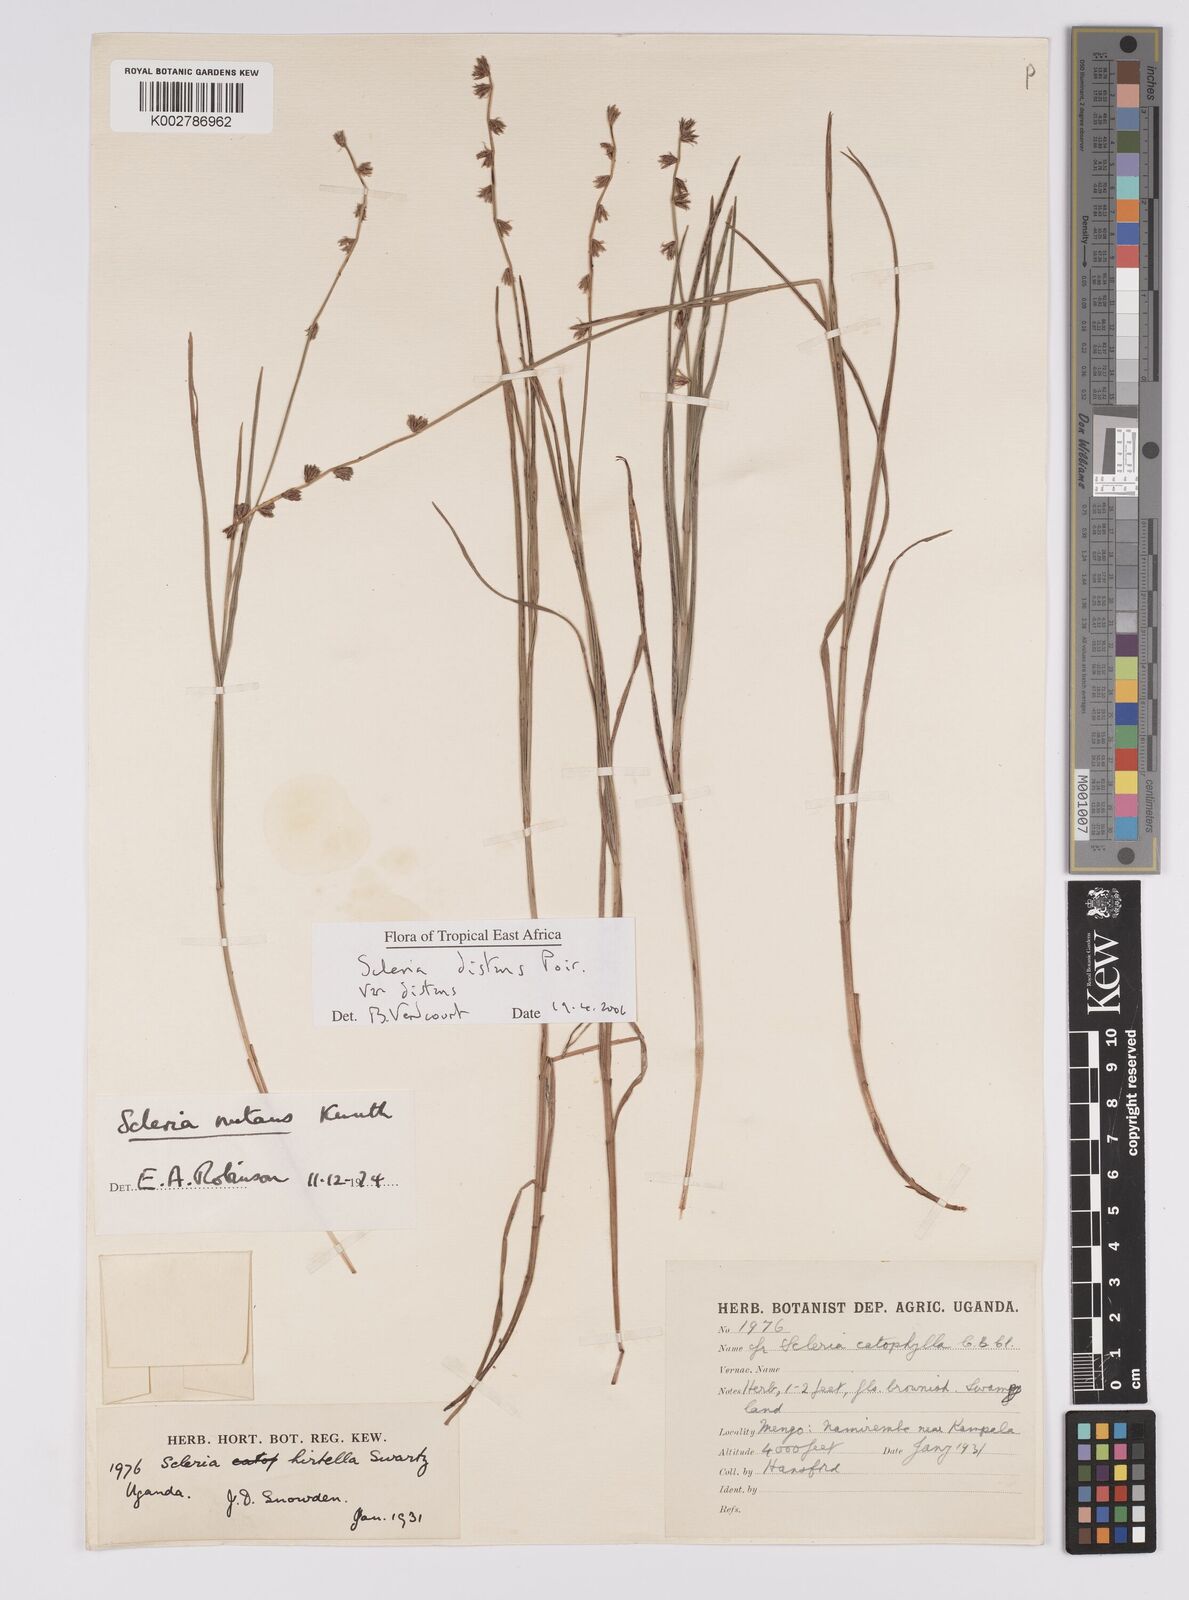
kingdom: Plantae
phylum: Tracheophyta
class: Liliopsida
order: Poales
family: Cyperaceae
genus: Scleria
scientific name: Scleria
